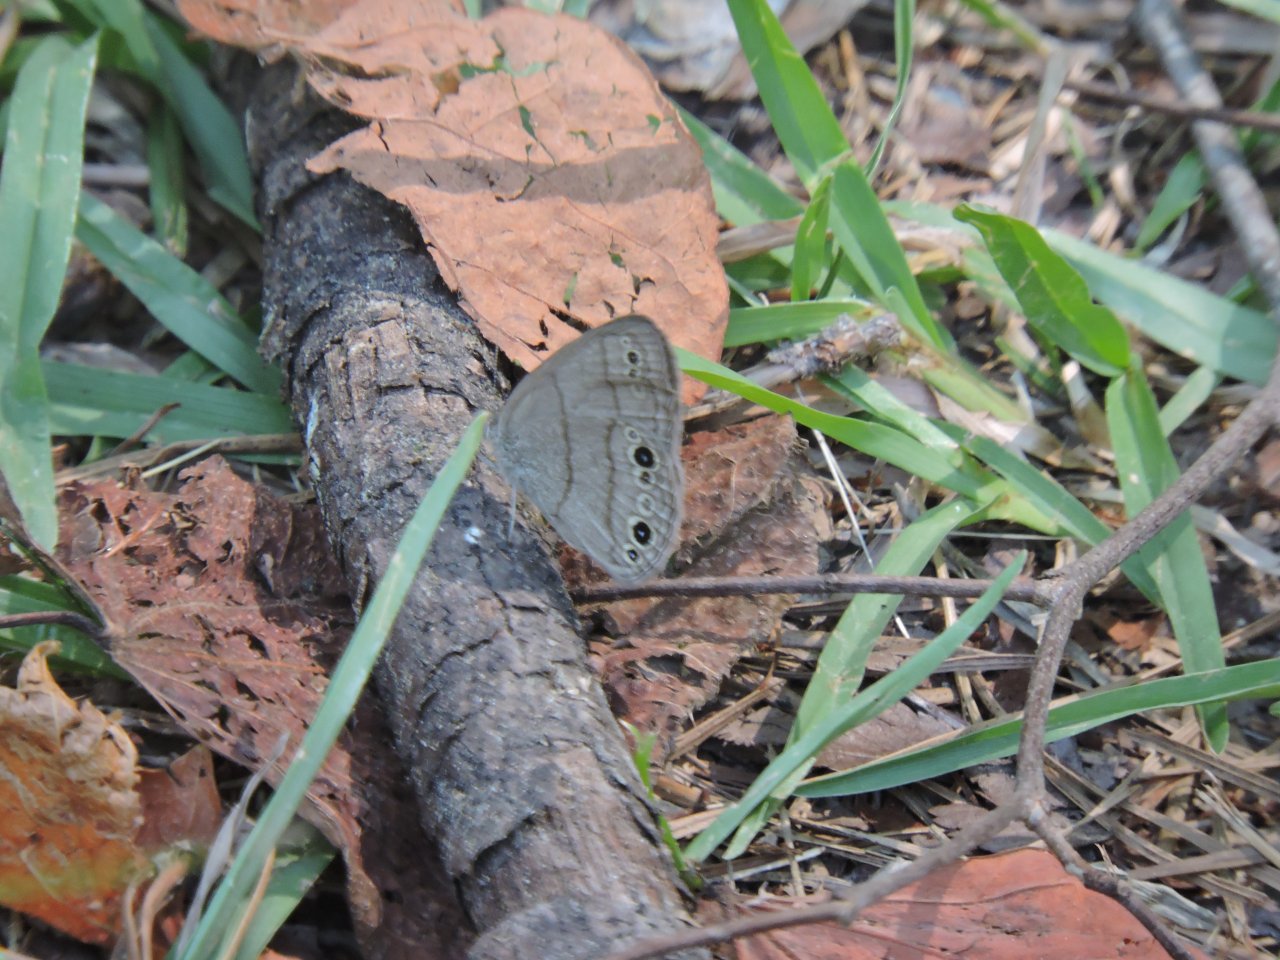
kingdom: Animalia
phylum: Arthropoda
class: Insecta
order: Lepidoptera
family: Nymphalidae
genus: Hermeuptychia
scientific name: Hermeuptychia hermes
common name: Carolina Satyr
